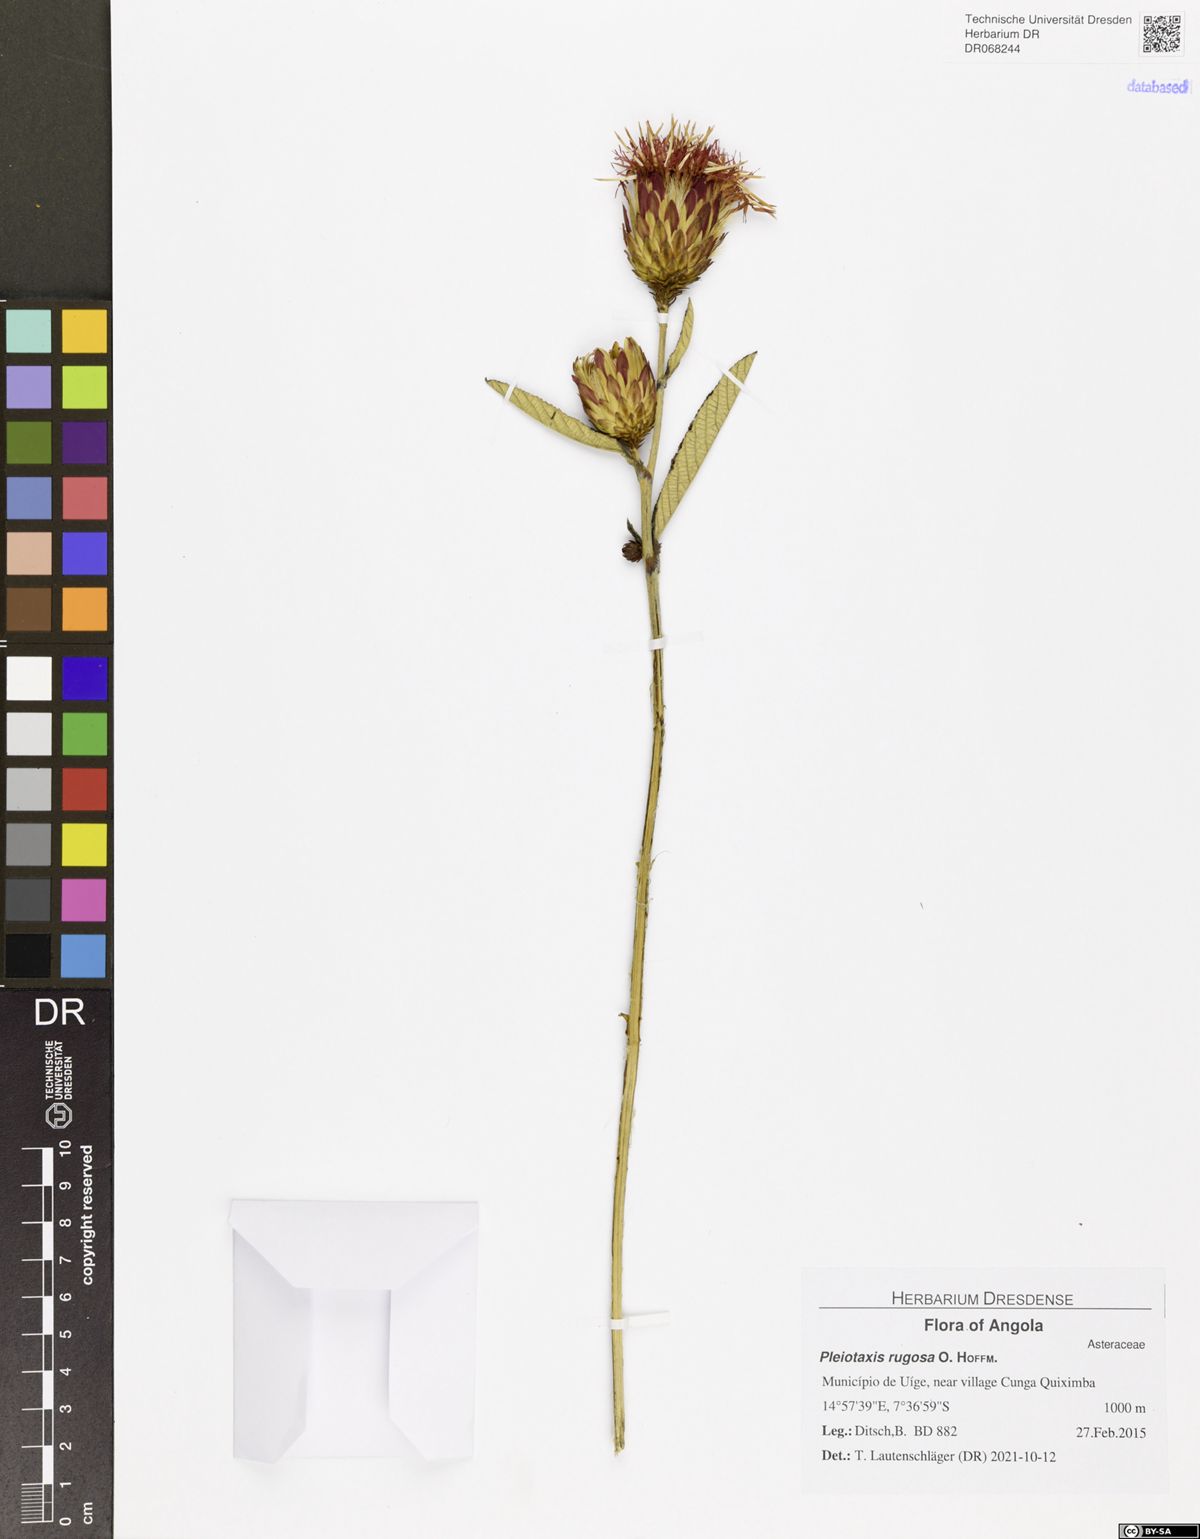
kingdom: Plantae
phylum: Tracheophyta
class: Magnoliopsida
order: Asterales
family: Asteraceae
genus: Pleiotaxis
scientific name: Pleiotaxis rugosa
